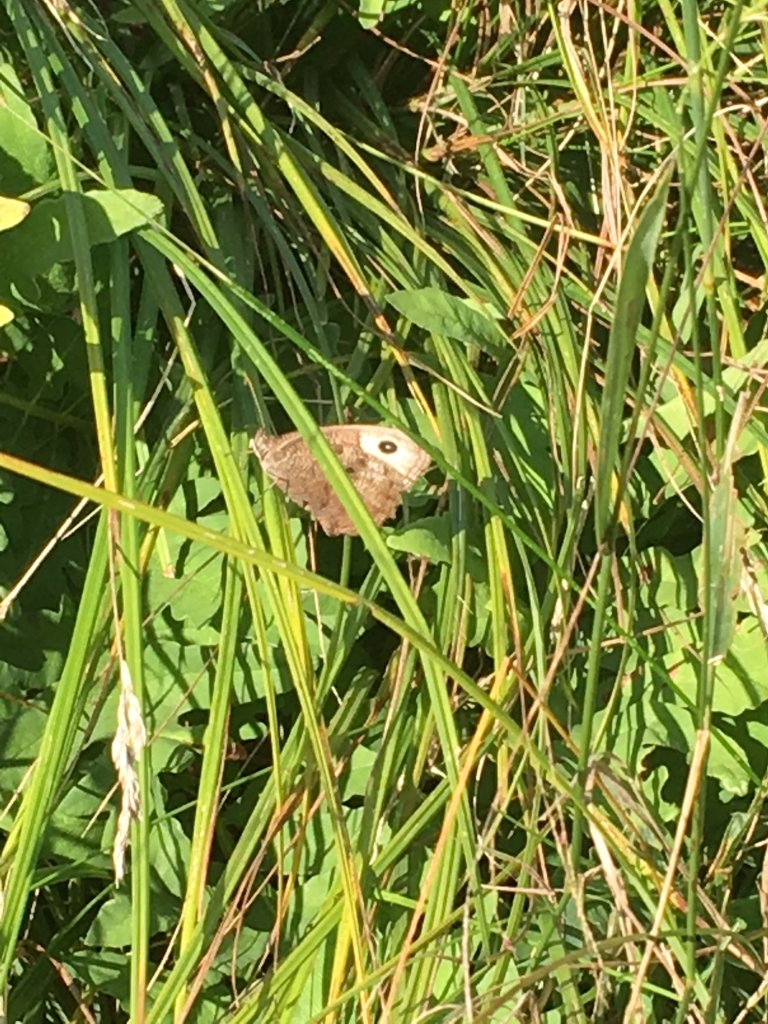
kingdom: Animalia
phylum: Arthropoda
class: Insecta
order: Lepidoptera
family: Nymphalidae
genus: Cercyonis
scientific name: Cercyonis pegala
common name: Common Wood-Nymph
